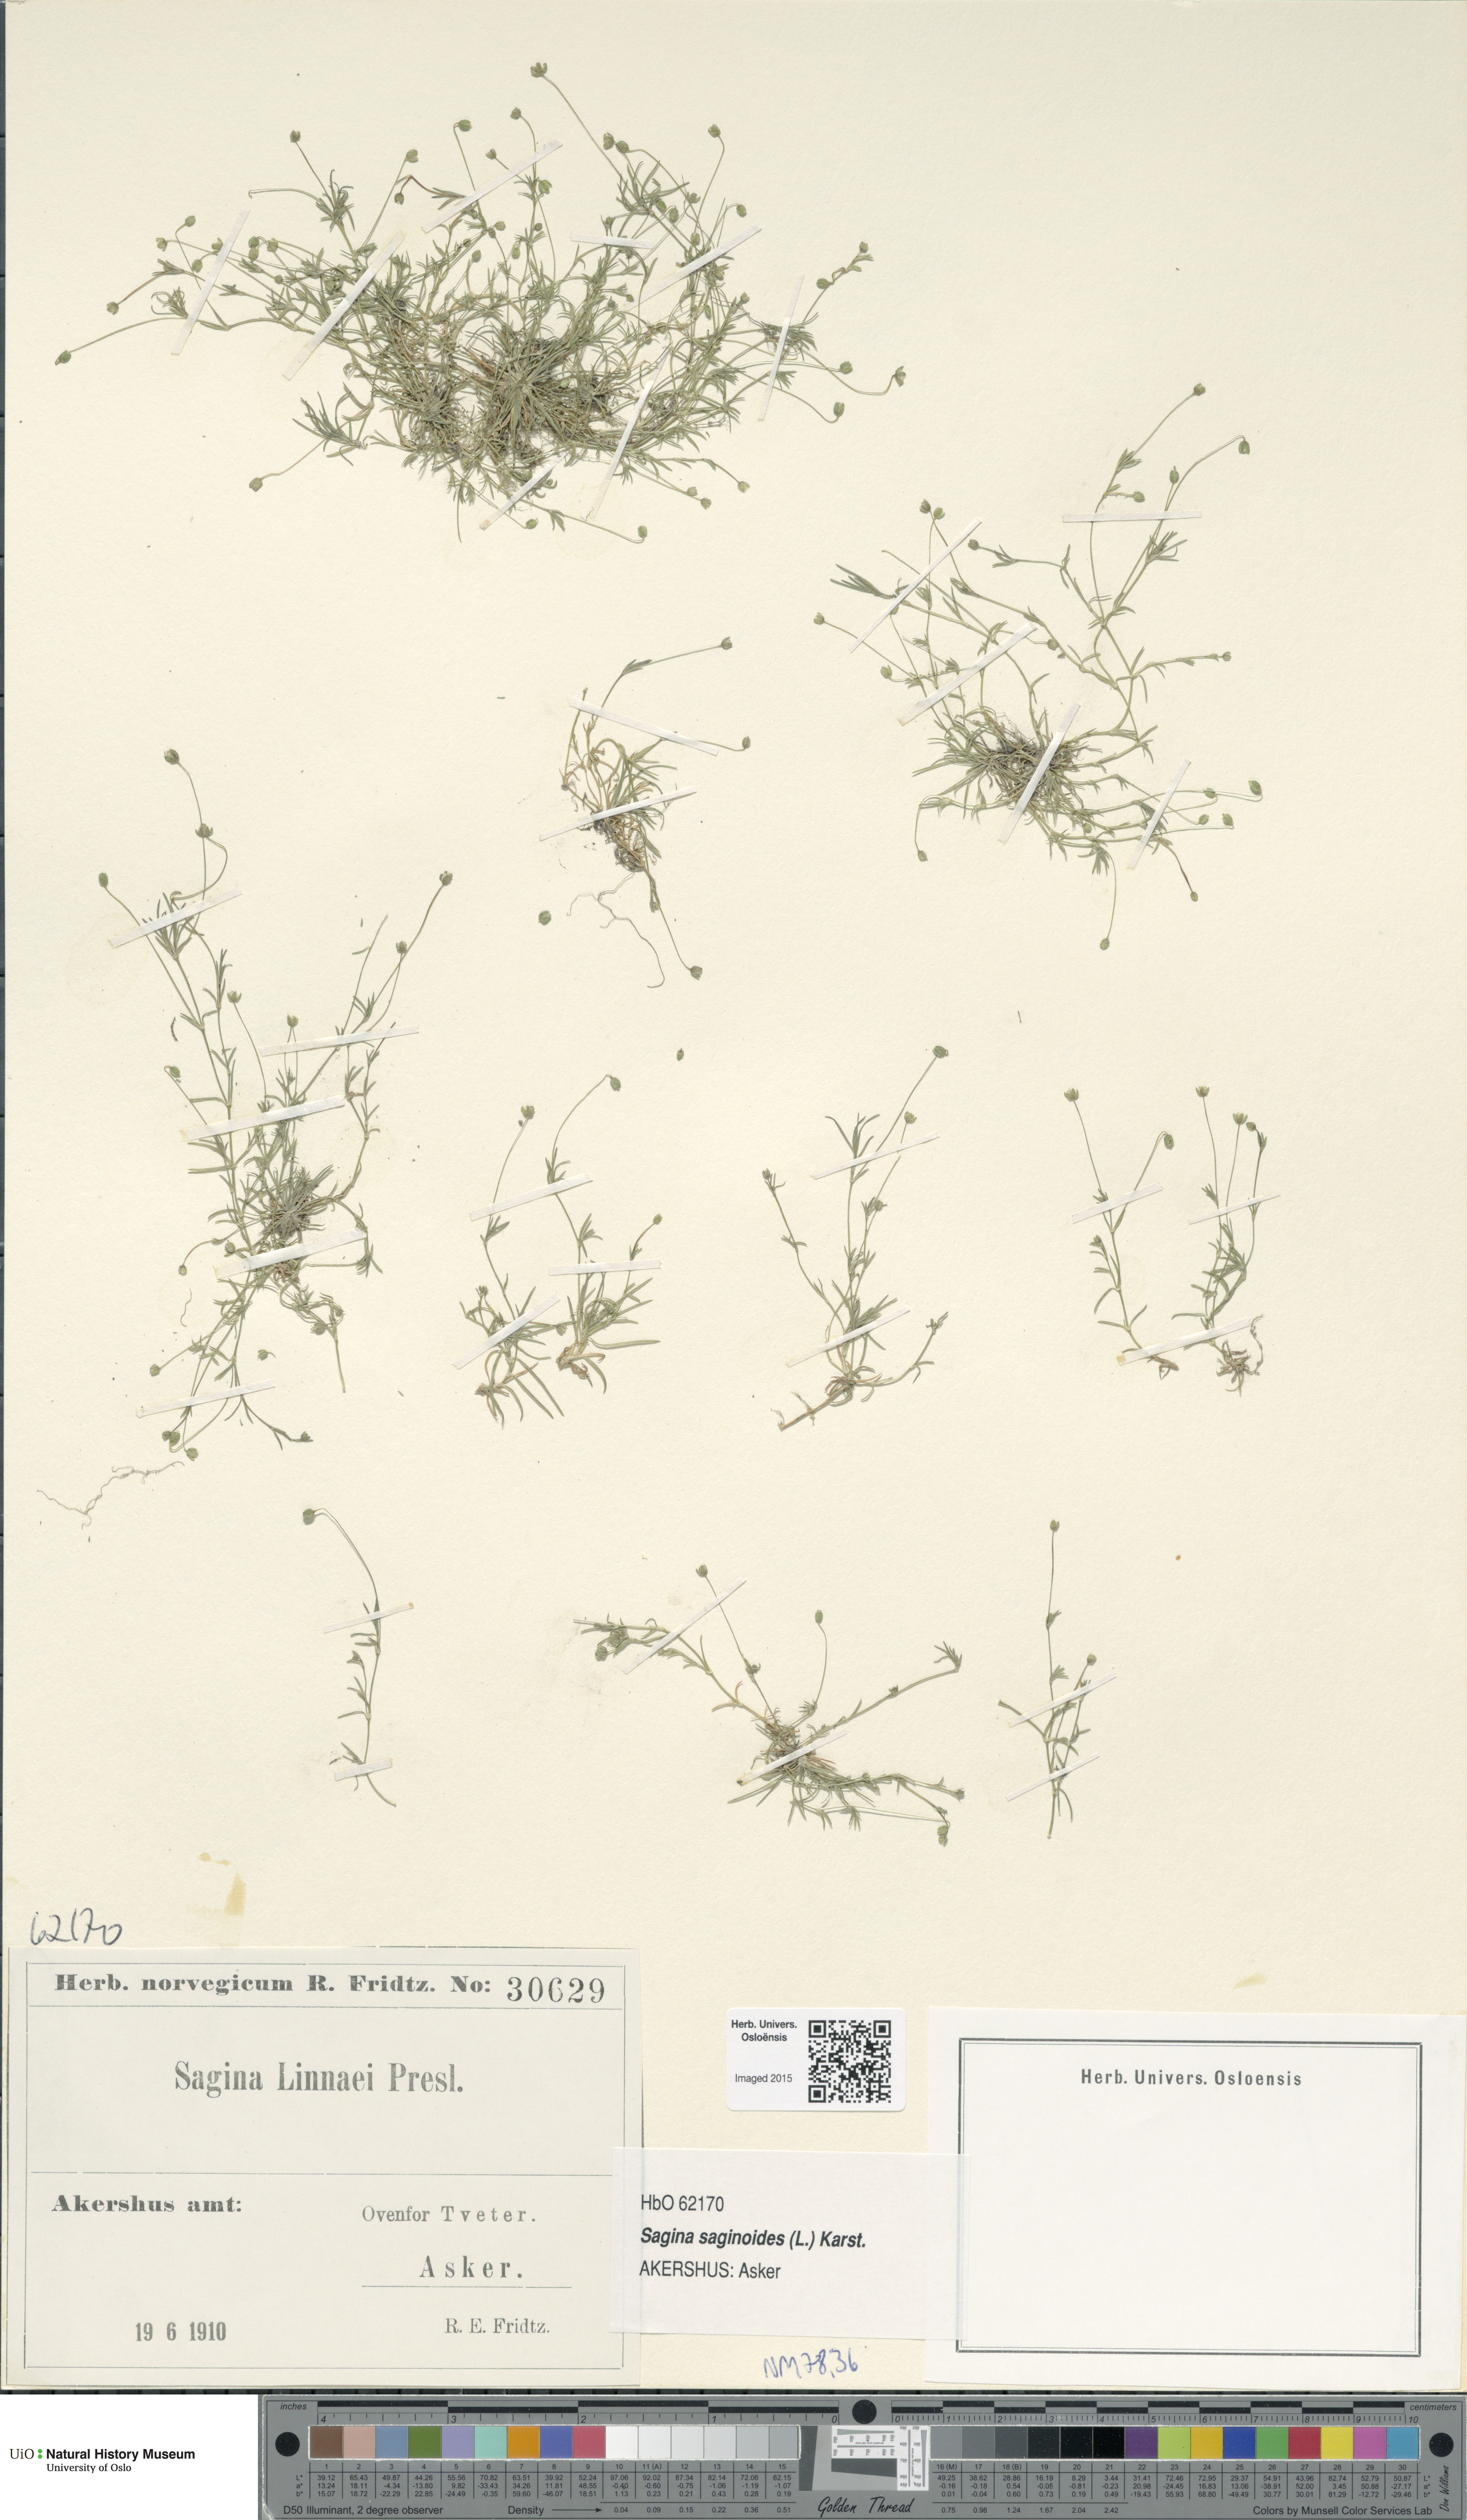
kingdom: Plantae
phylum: Tracheophyta
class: Magnoliopsida
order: Caryophyllales
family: Caryophyllaceae
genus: Sagina
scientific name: Sagina saginoides
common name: Alpine pearlwort
